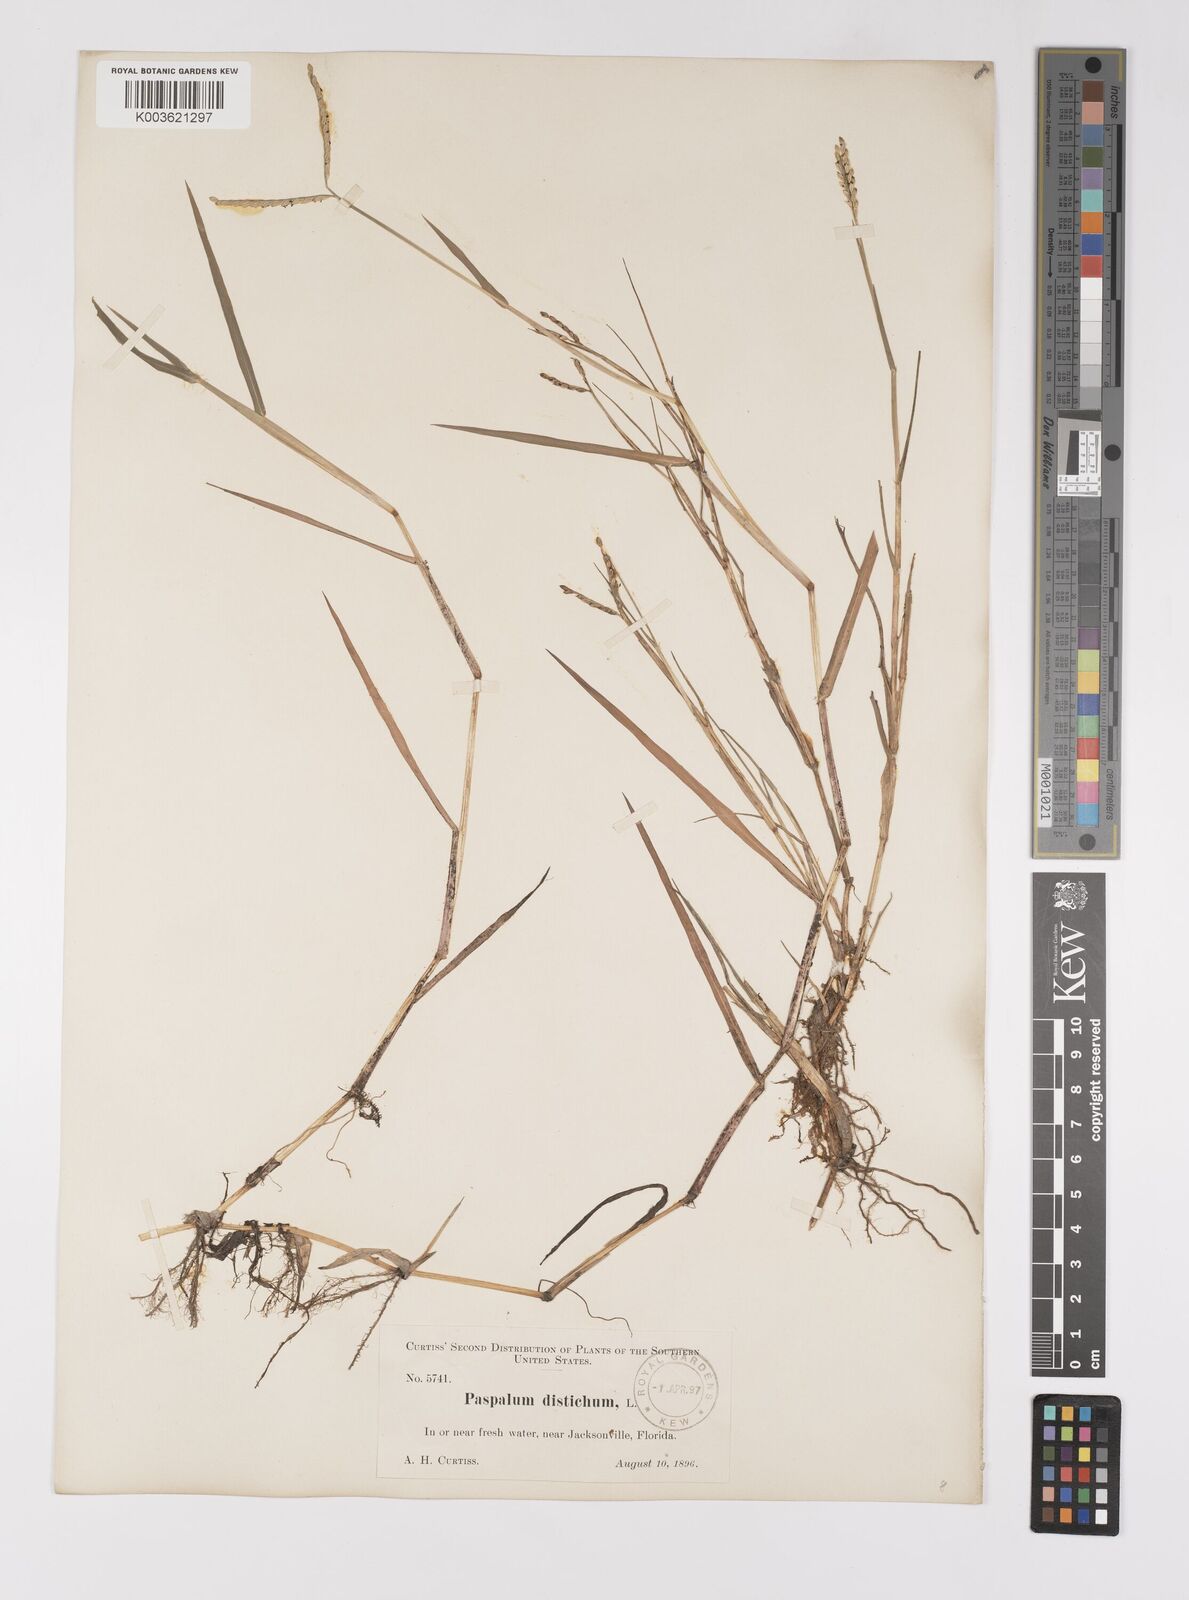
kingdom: Plantae
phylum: Tracheophyta
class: Liliopsida
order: Poales
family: Poaceae
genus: Paspalum
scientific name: Paspalum distichum
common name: Knotgrass
